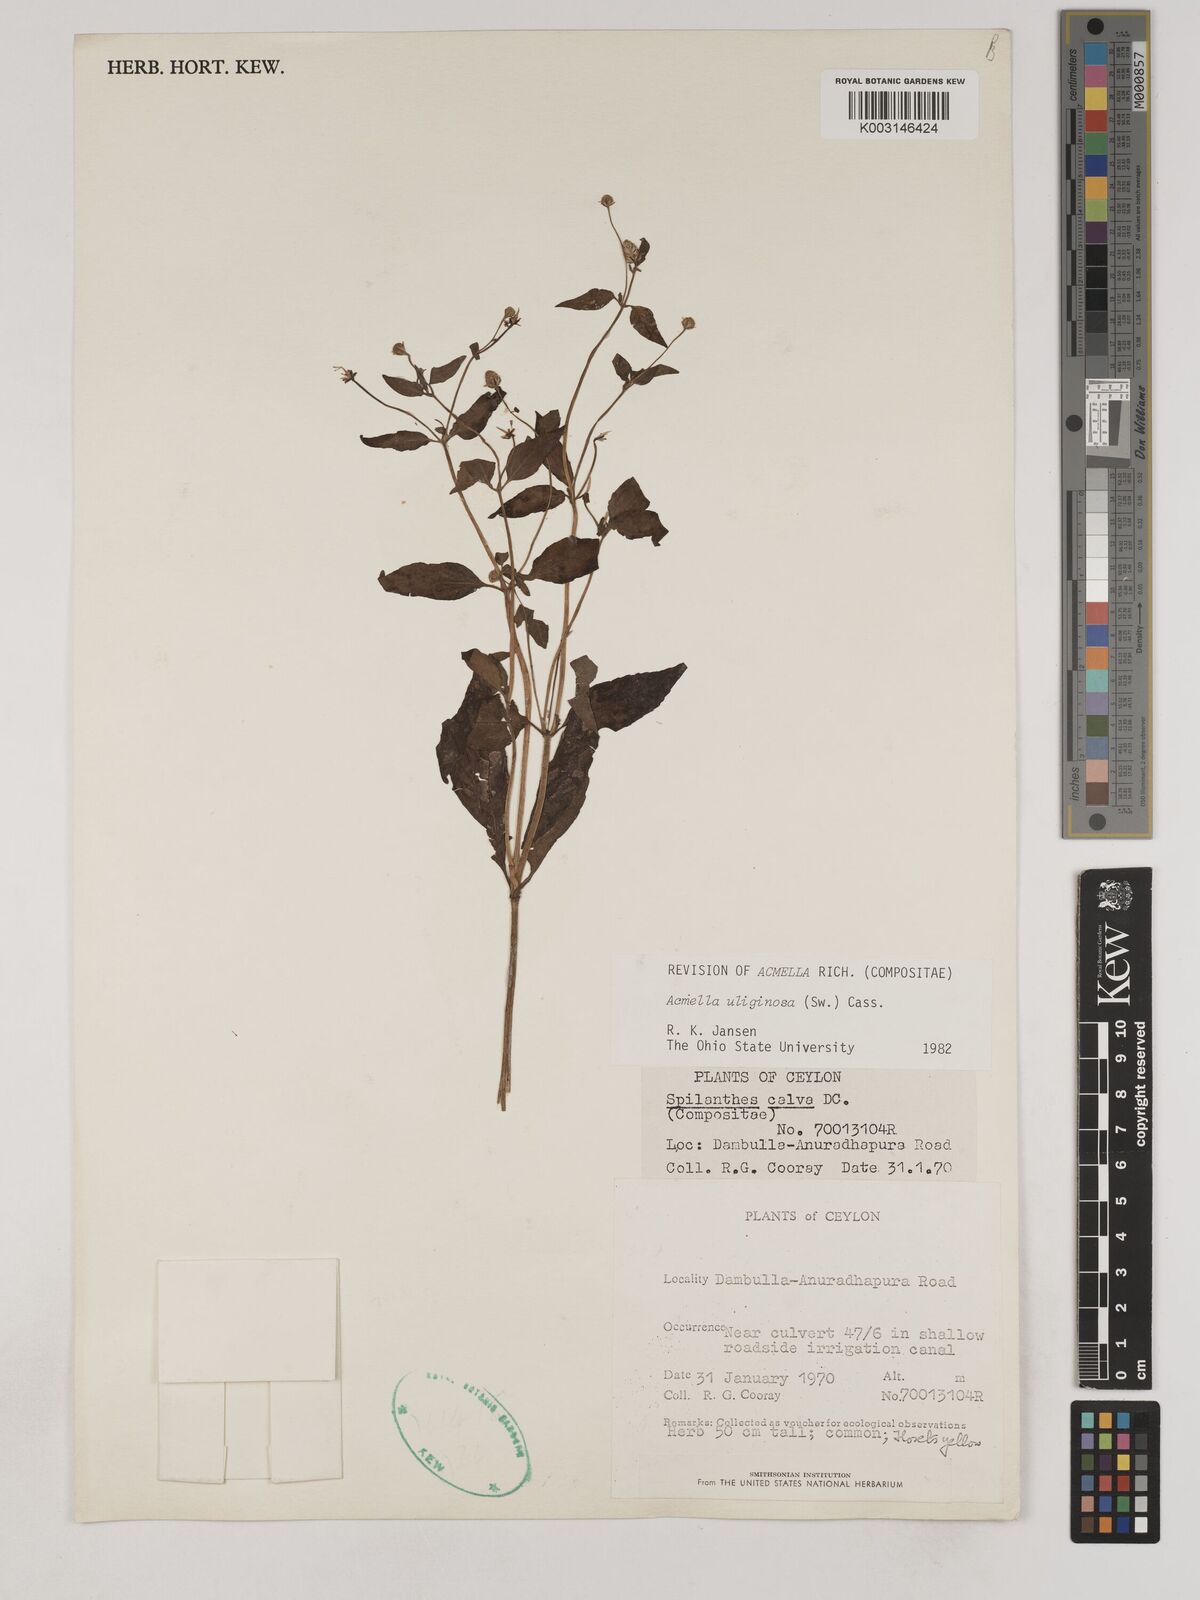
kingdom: Plantae
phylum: Tracheophyta
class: Magnoliopsida
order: Asterales
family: Asteraceae
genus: Acmella
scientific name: Acmella uliginosa
